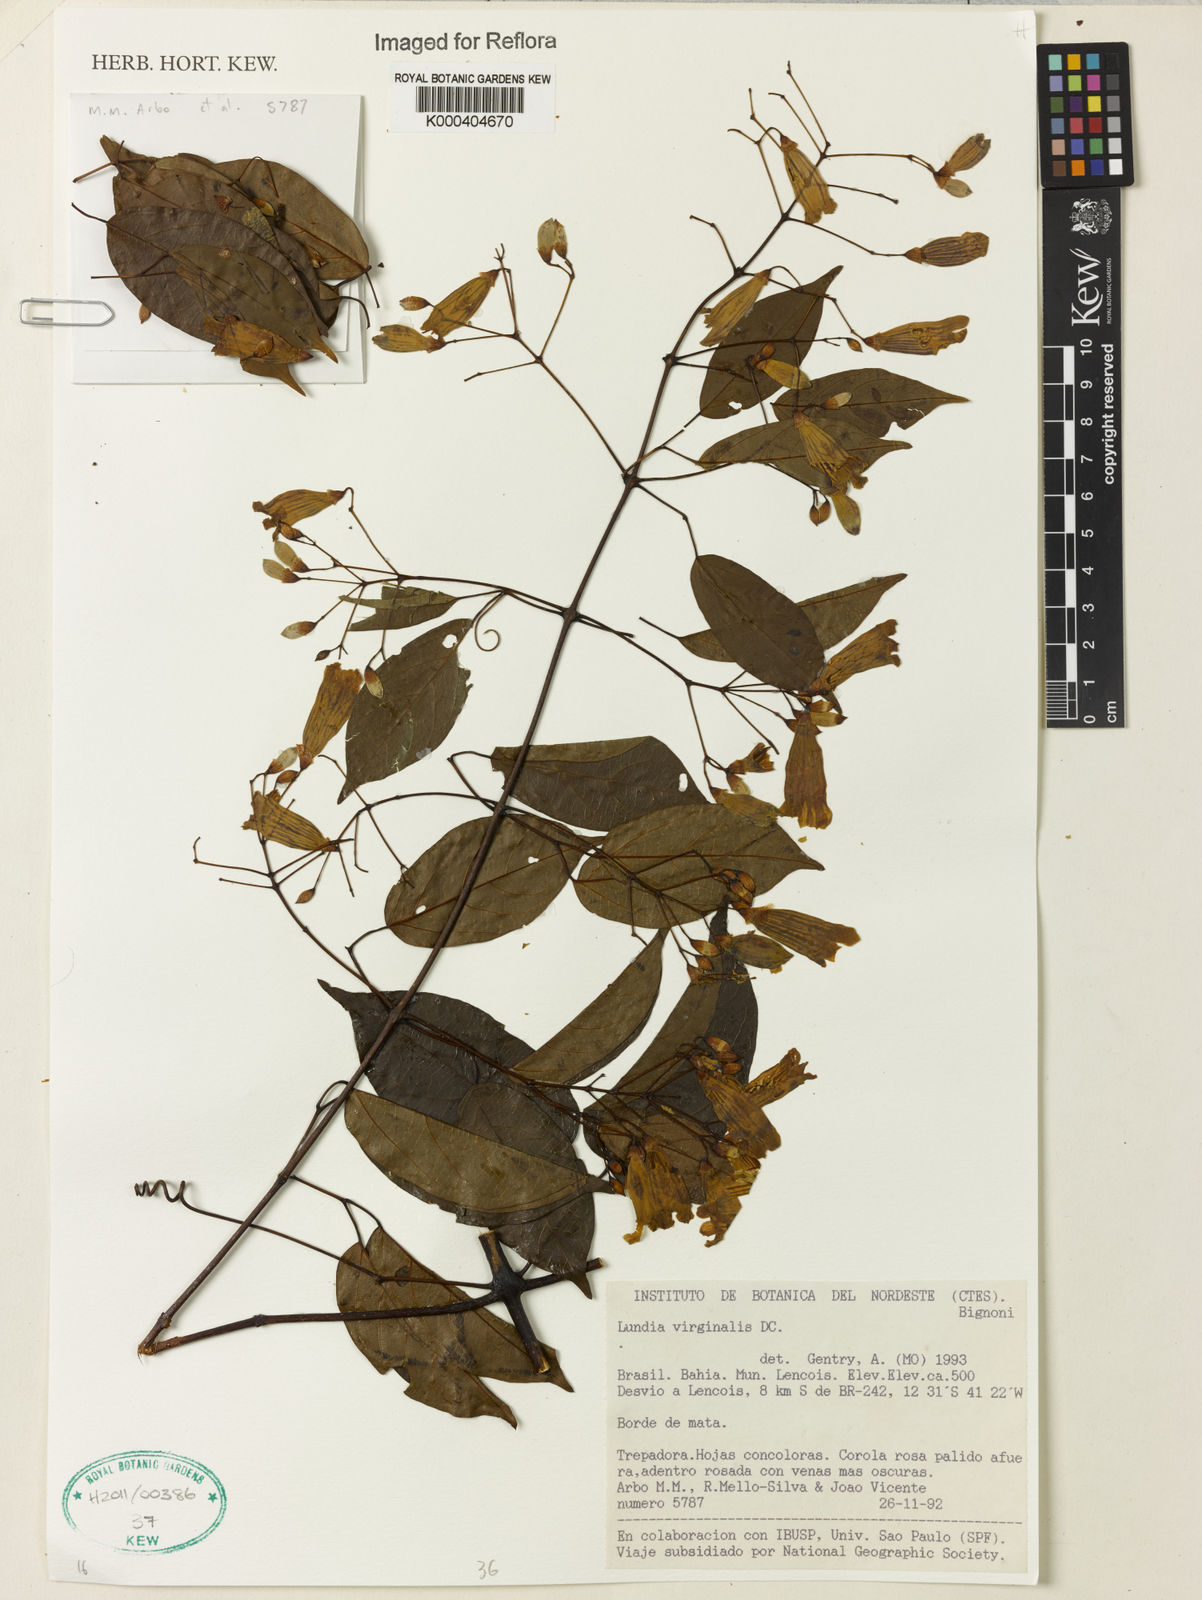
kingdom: Plantae
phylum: Tracheophyta
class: Magnoliopsida
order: Lamiales
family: Bignoniaceae
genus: Lundia
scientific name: Lundia virginalis
